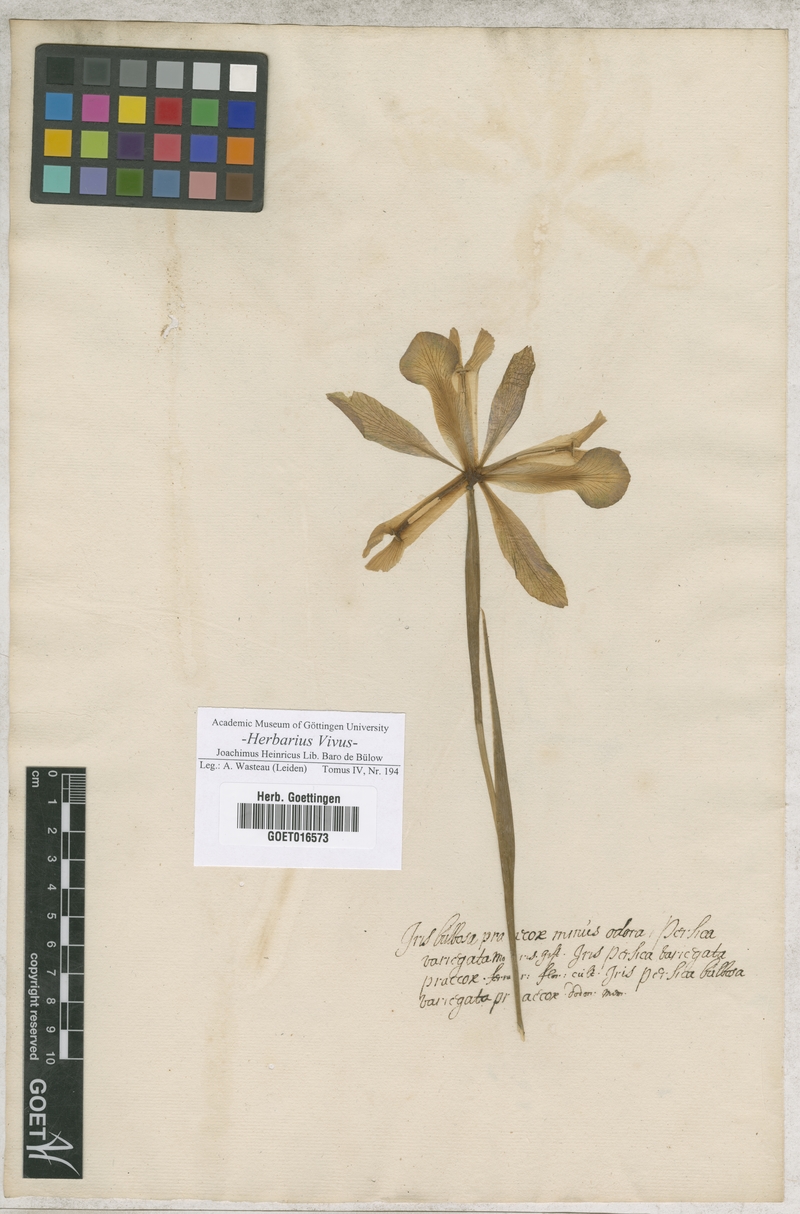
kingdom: Plantae
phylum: Tracheophyta
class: Liliopsida
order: Asparagales
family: Iridaceae
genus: Iris
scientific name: Iris
